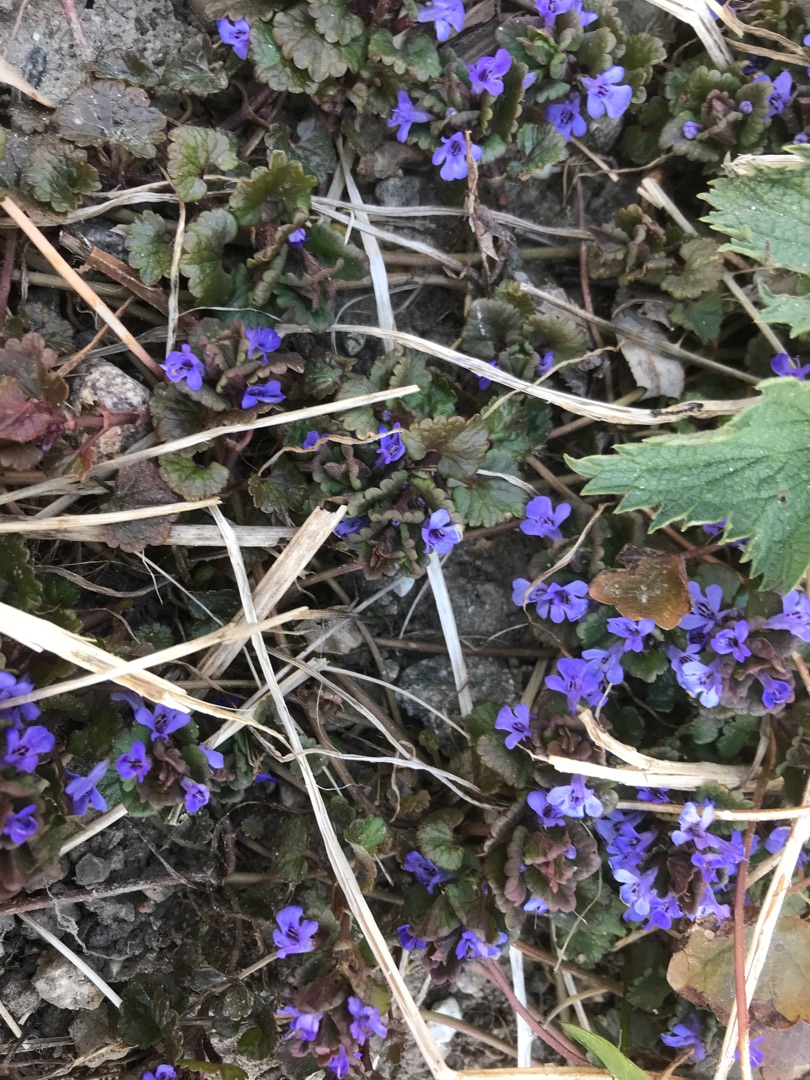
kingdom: Plantae
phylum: Tracheophyta
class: Magnoliopsida
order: Lamiales
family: Lamiaceae
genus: Glechoma
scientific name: Glechoma hederacea
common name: Korsknap
